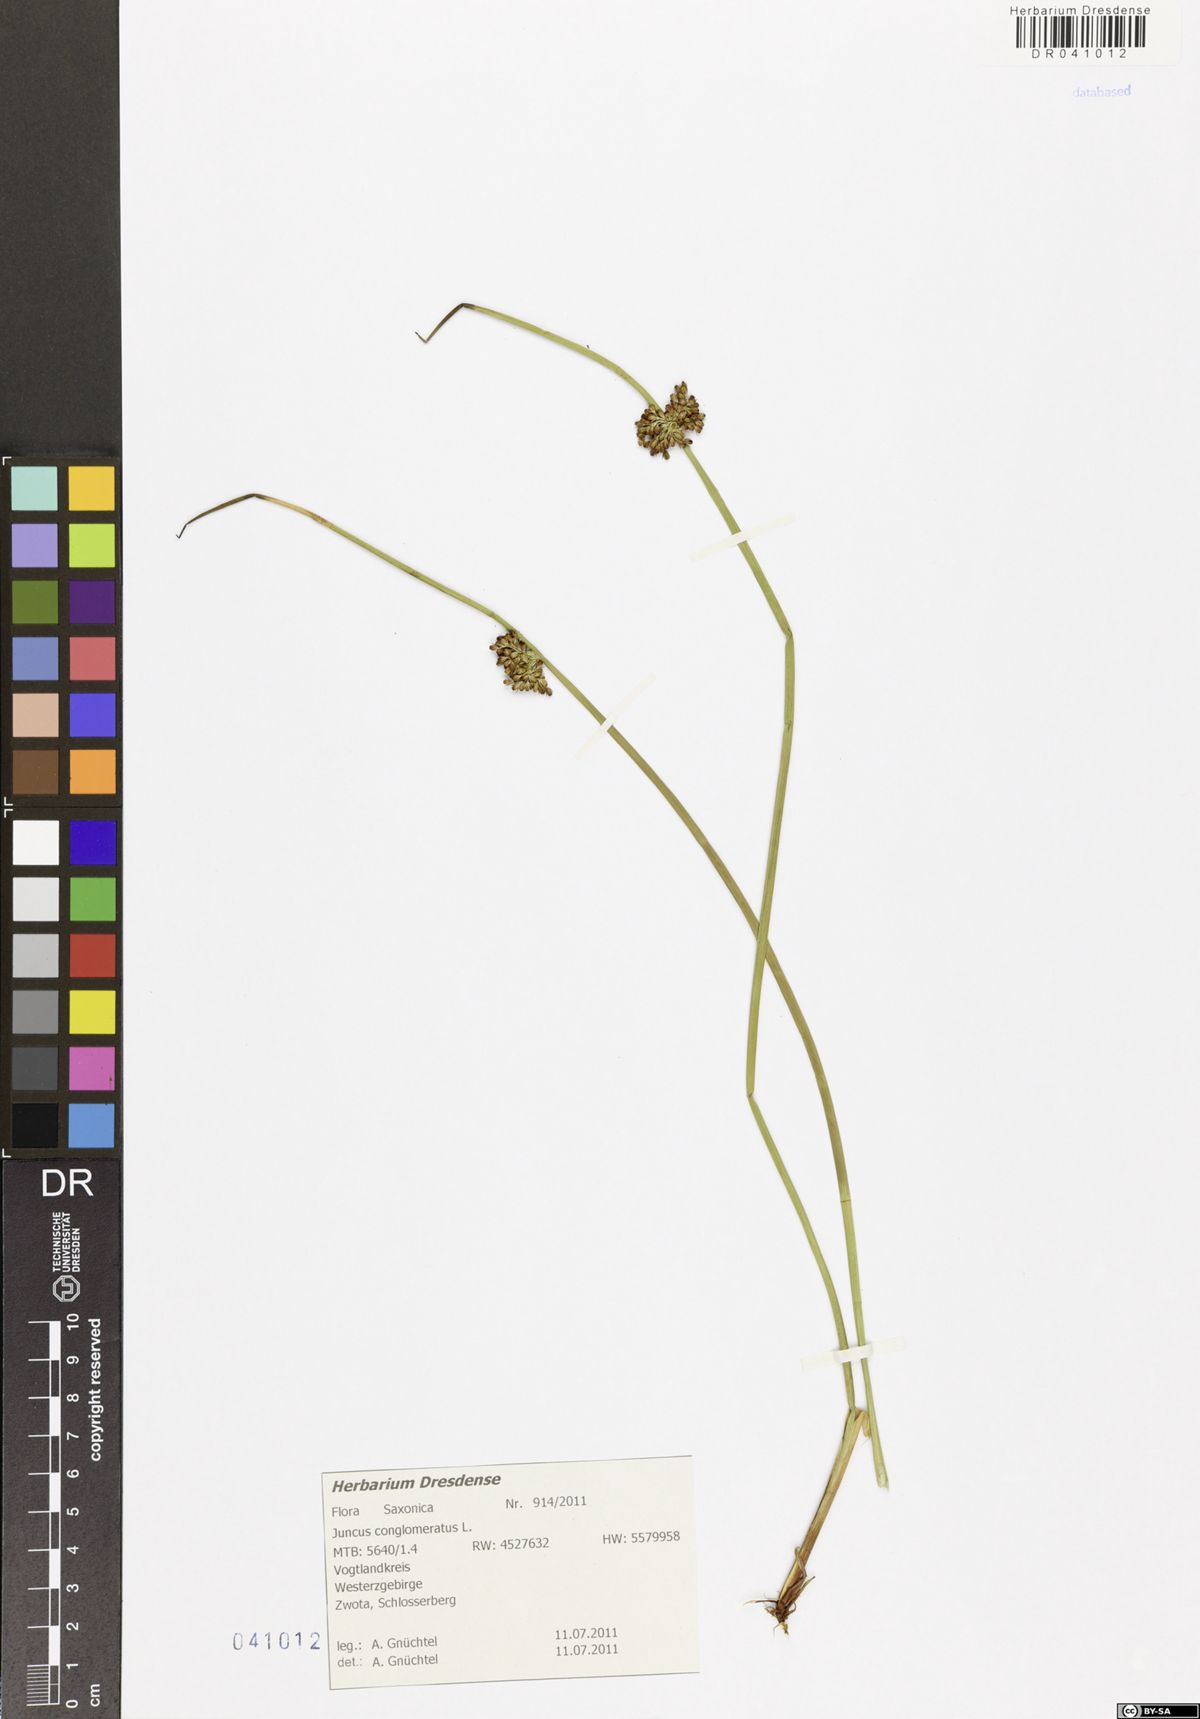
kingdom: Plantae
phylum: Tracheophyta
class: Liliopsida
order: Poales
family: Juncaceae
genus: Juncus
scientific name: Juncus conglomeratus
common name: Compact rush
